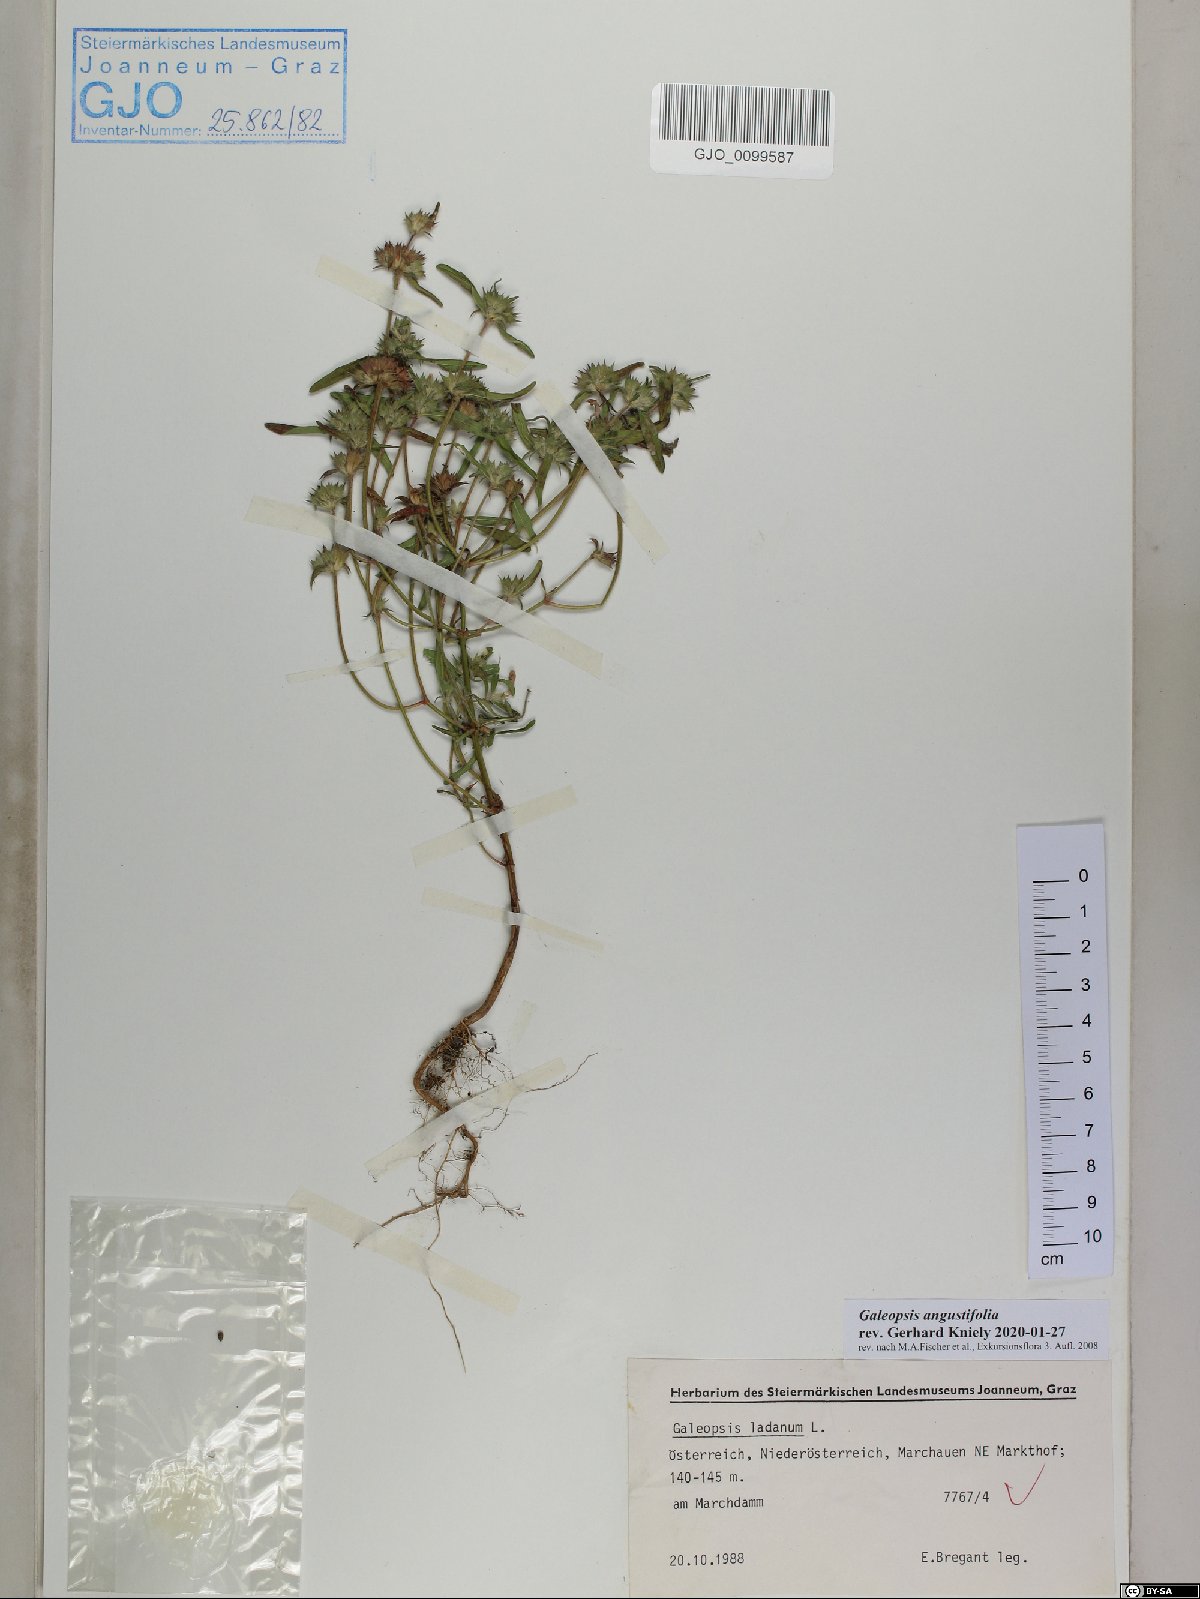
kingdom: Plantae
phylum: Tracheophyta
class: Magnoliopsida
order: Lamiales
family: Lamiaceae
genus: Galeopsis
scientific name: Galeopsis angustifolia
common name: Red hemp-nettle
